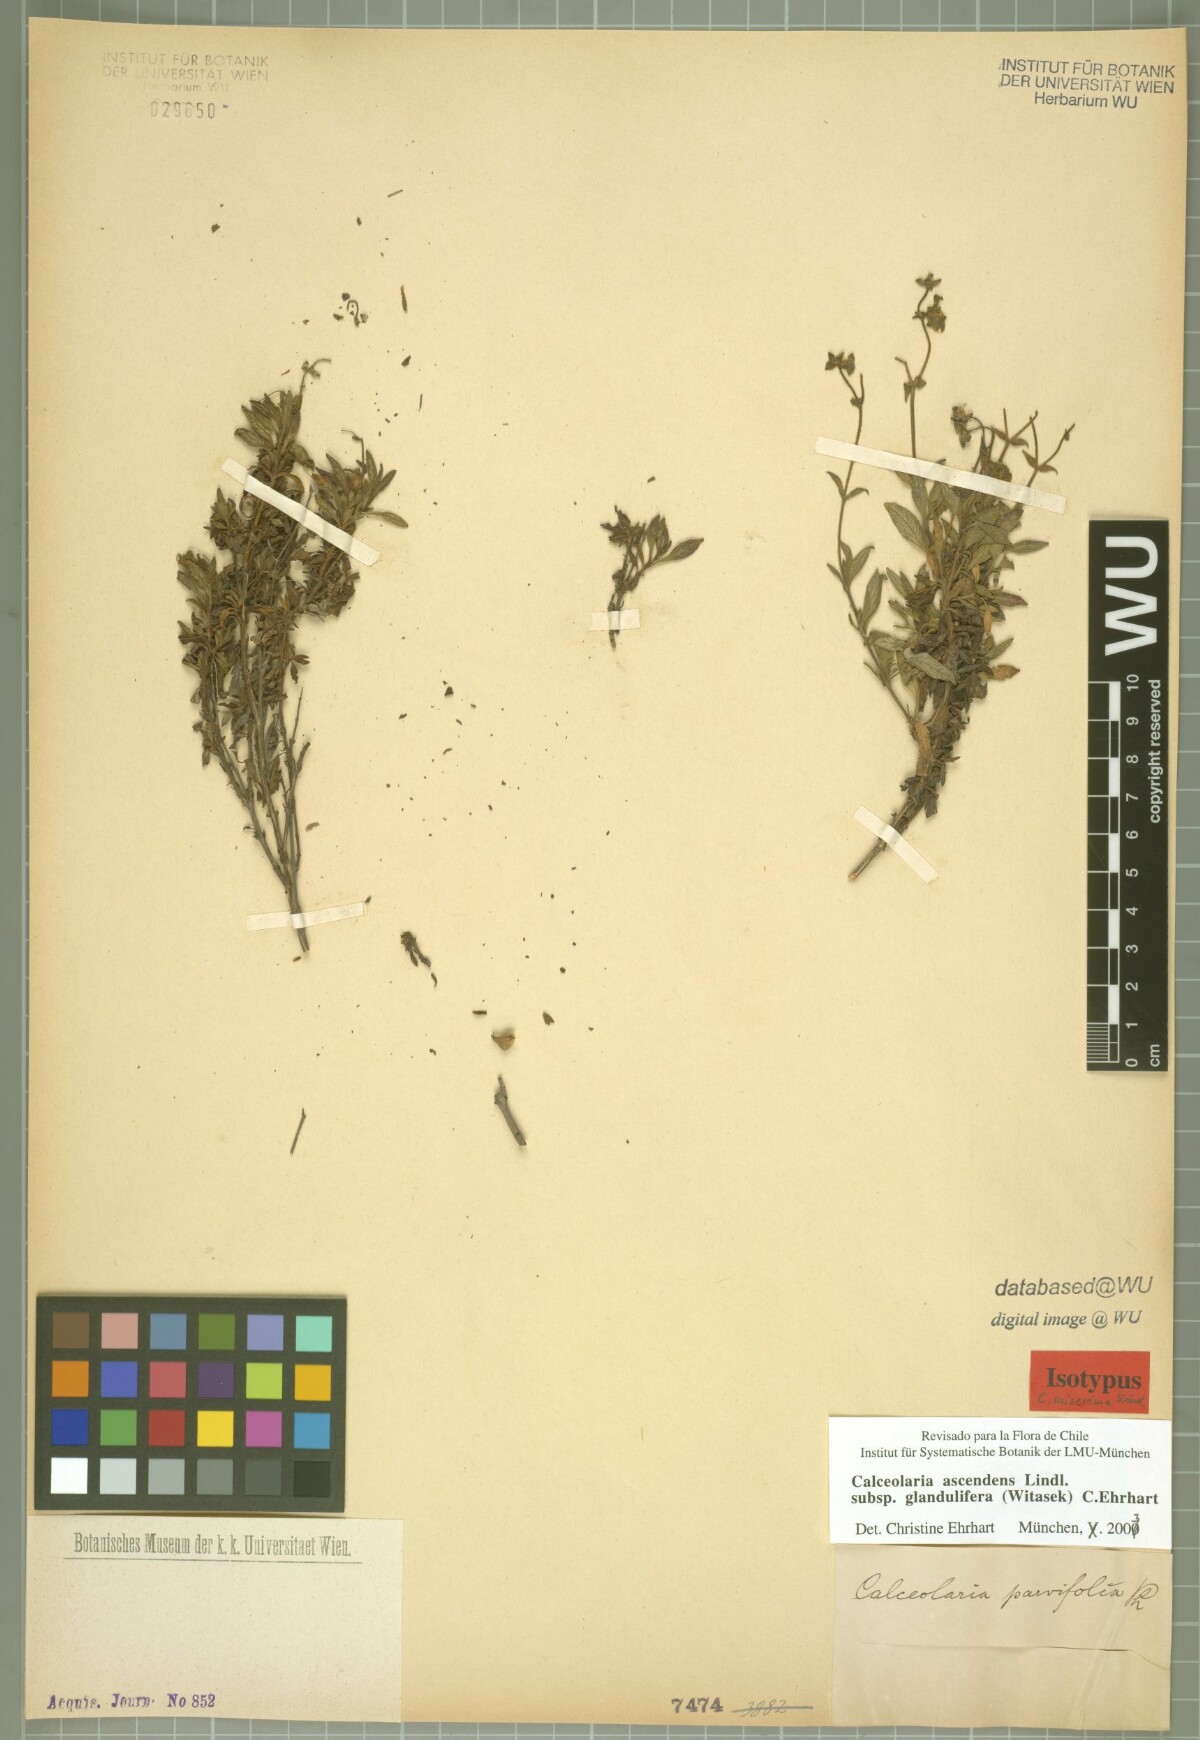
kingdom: Plantae
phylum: Tracheophyta
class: Magnoliopsida
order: Lamiales
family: Calceolariaceae
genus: Calceolaria
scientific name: Calceolaria ascendens
